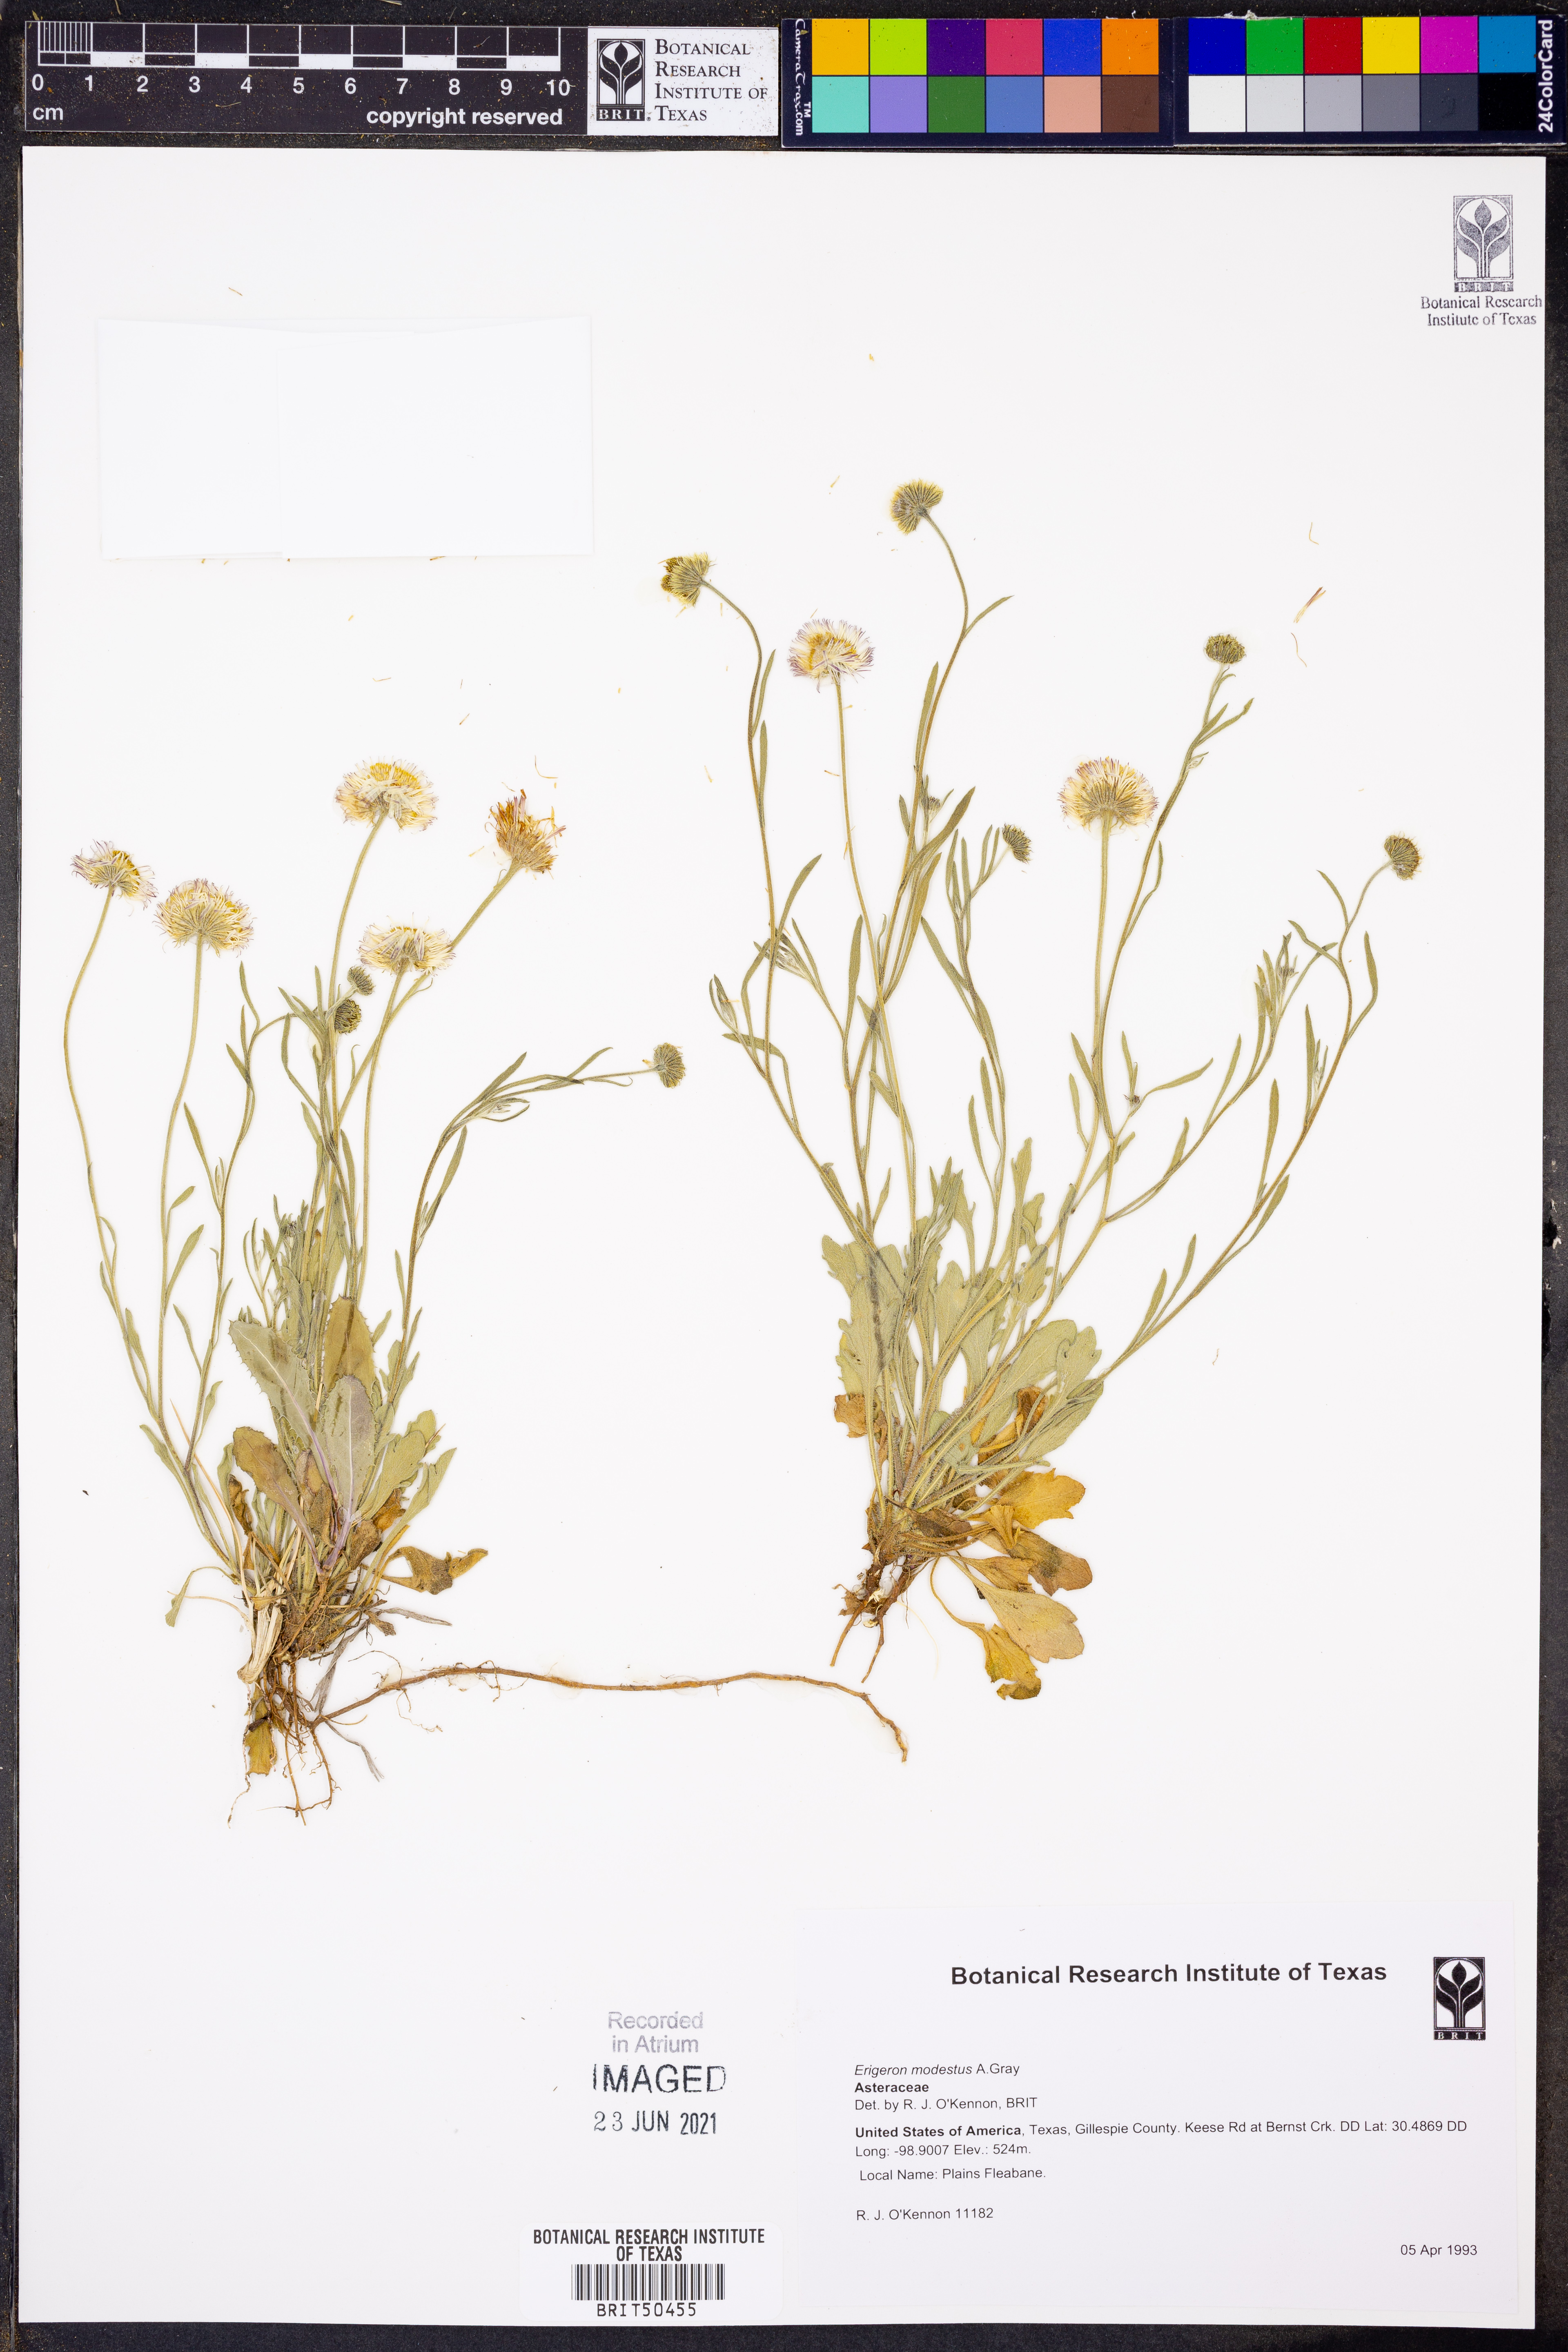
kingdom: Plantae
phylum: Tracheophyta
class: Magnoliopsida
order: Asterales
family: Asteraceae
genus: Erigeron
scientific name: Erigeron modestus
